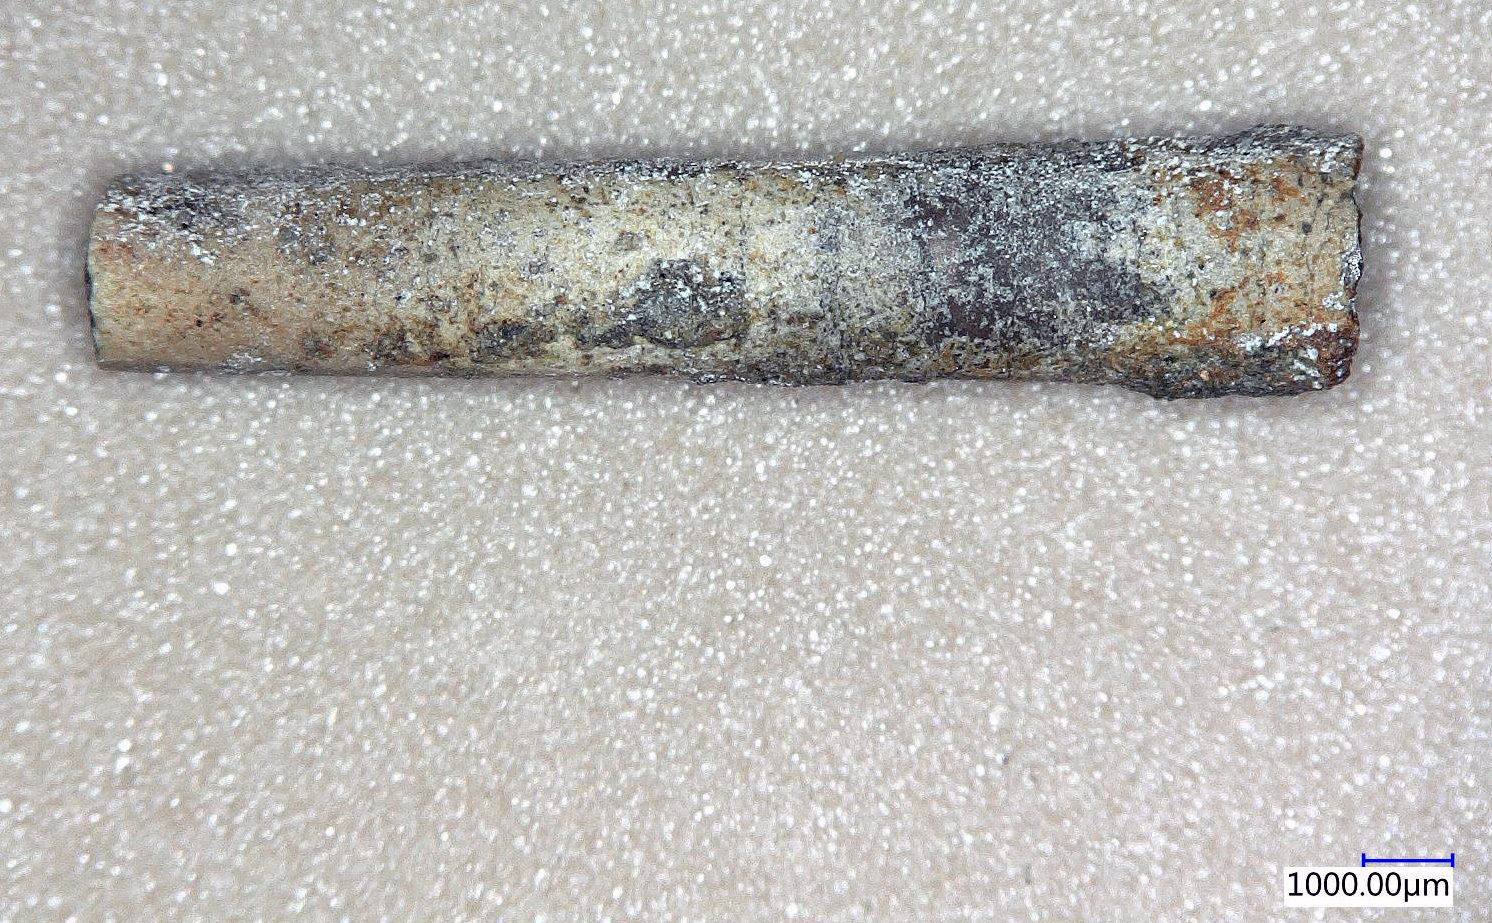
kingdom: Animalia
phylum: Mollusca
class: Cephalopoda
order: Belemnitida
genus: Subhastites
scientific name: Subhastites
